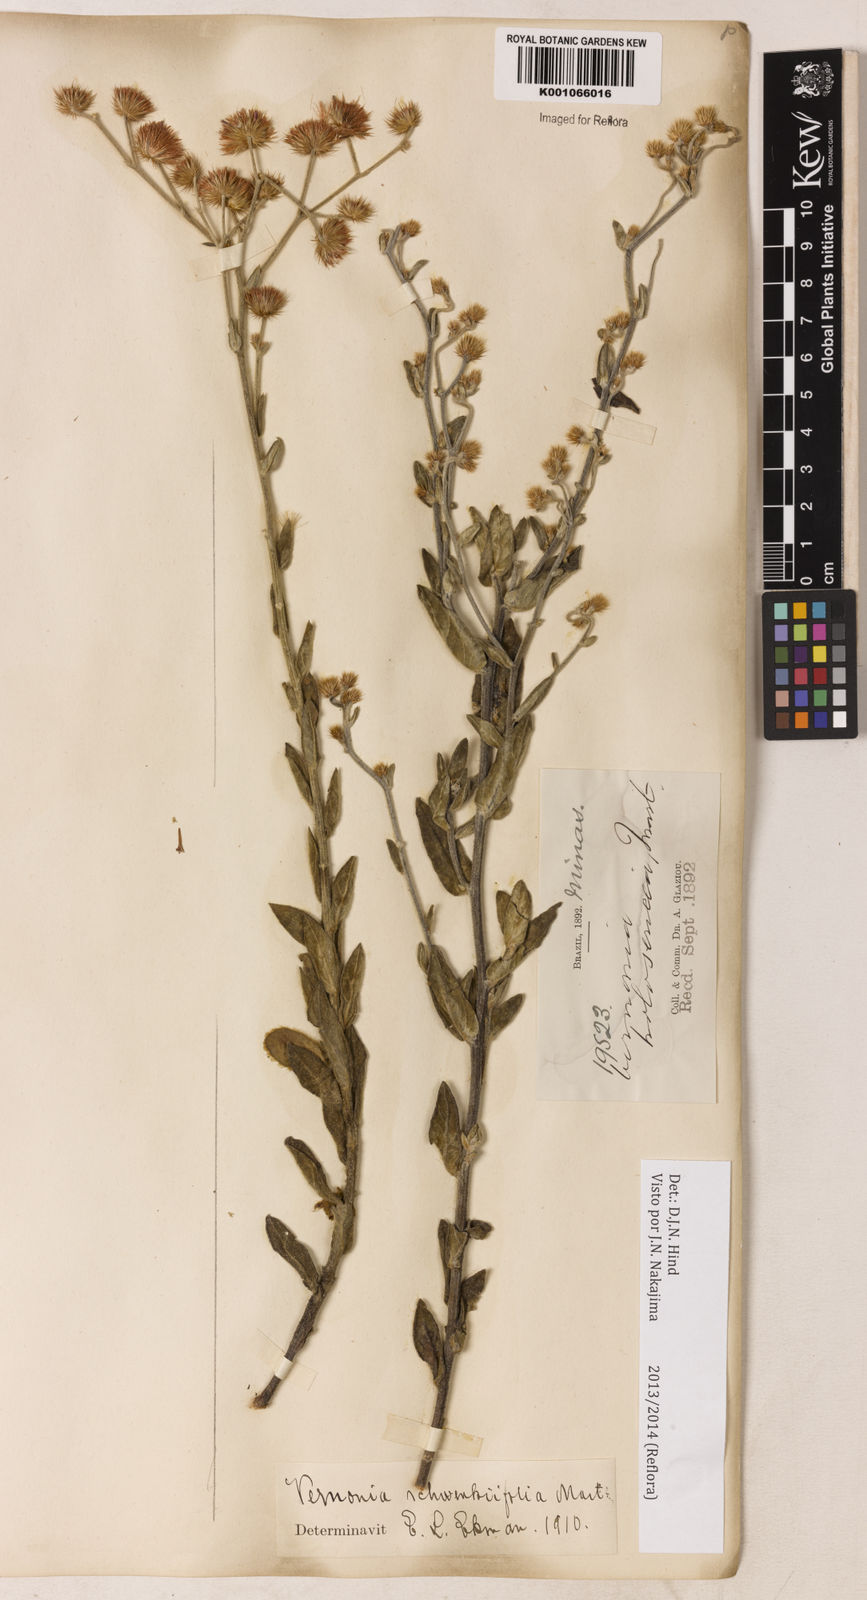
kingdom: Plantae
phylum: Tracheophyta
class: Magnoliopsida
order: Asterales
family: Asteraceae
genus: Vernonia
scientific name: Vernonia
